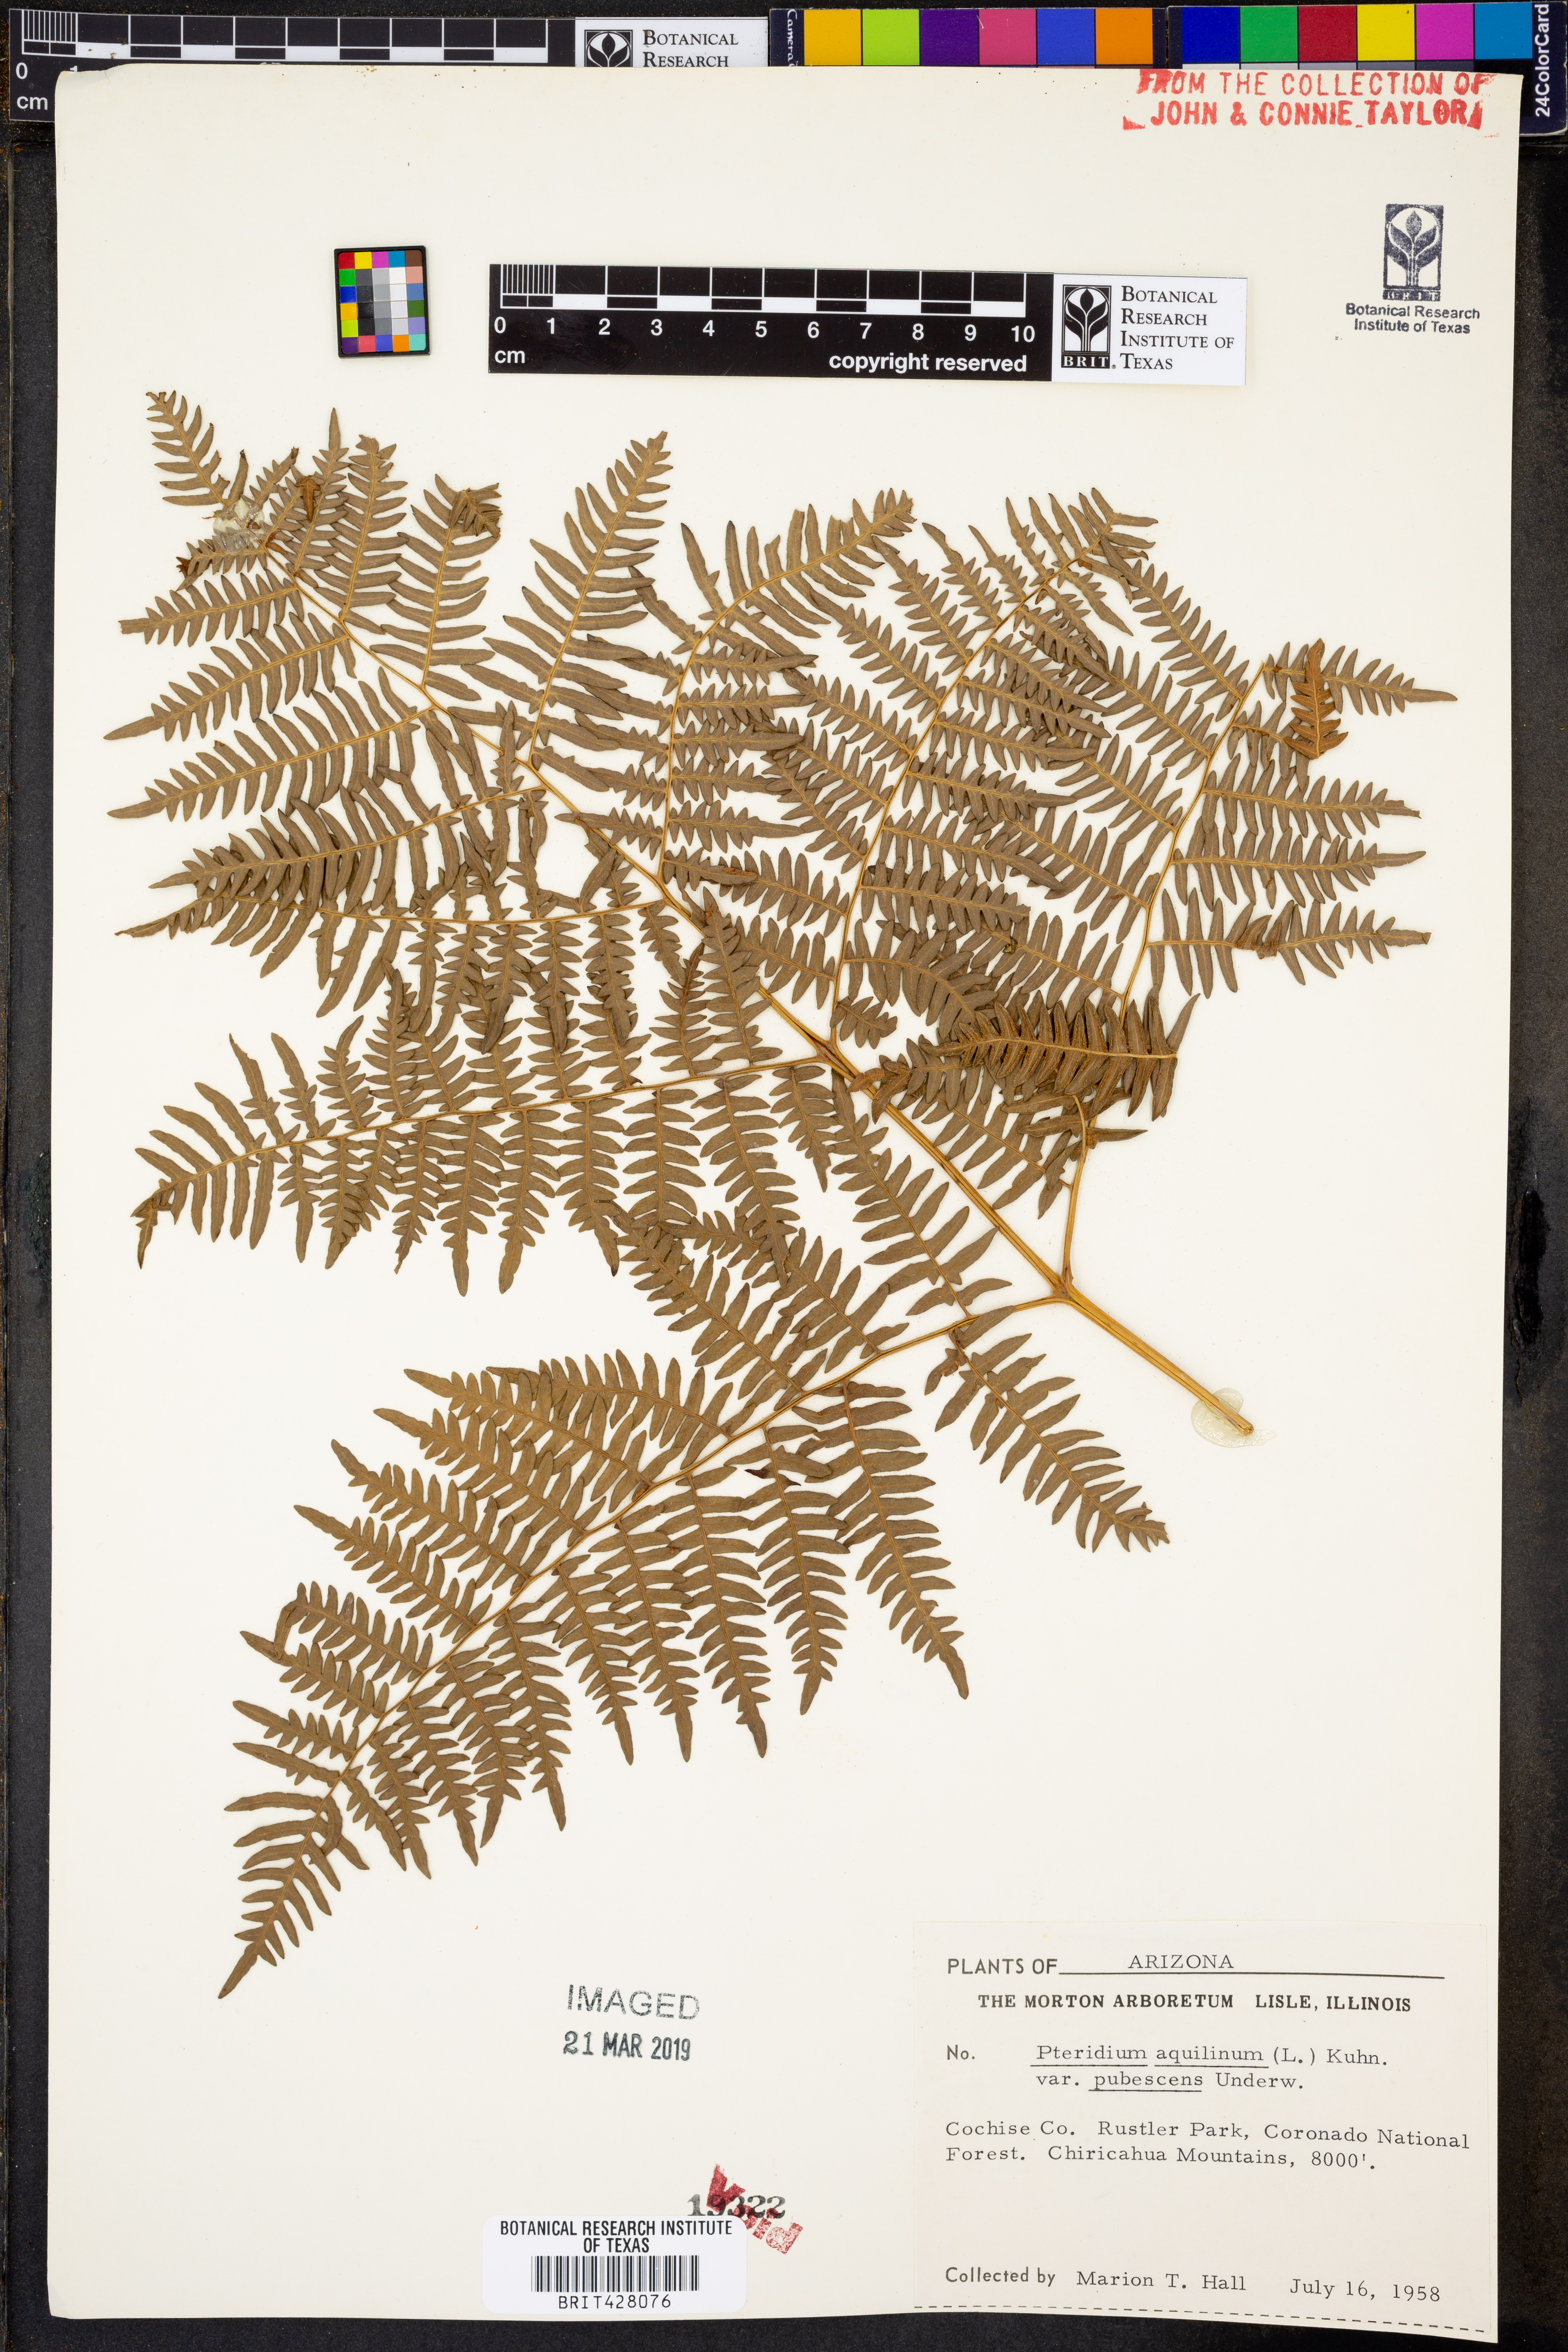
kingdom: Plantae
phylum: Tracheophyta
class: Polypodiopsida
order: Polypodiales
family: Dennstaedtiaceae
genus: Pteridium
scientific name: Pteridium aquilinum
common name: Bracken
